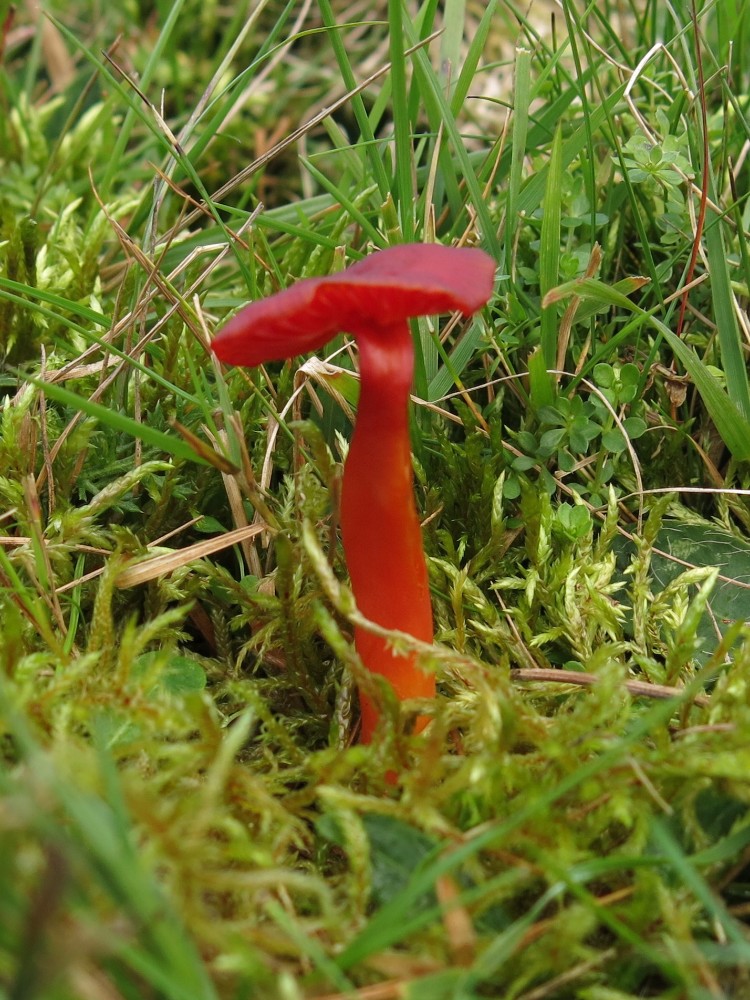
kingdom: Fungi
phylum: Basidiomycota
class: Agaricomycetes
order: Agaricales
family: Hygrophoraceae
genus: Hygrocybe
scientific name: Hygrocybe phaeococcinea
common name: sortdugget vokshat
